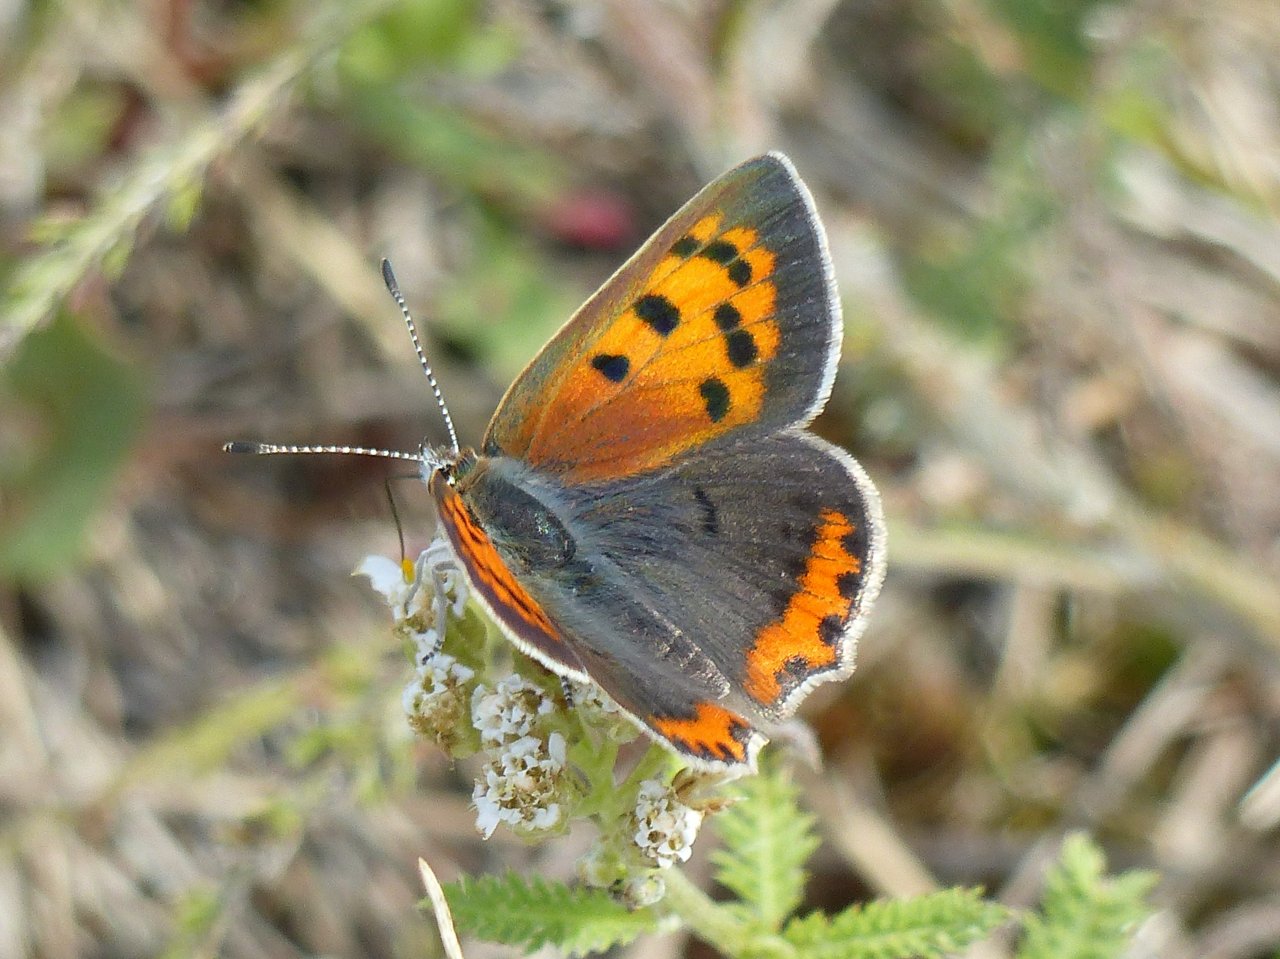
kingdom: Animalia
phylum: Arthropoda
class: Insecta
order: Lepidoptera
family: Lycaenidae
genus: Lycaena
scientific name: Lycaena phlaeas
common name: American Copper
